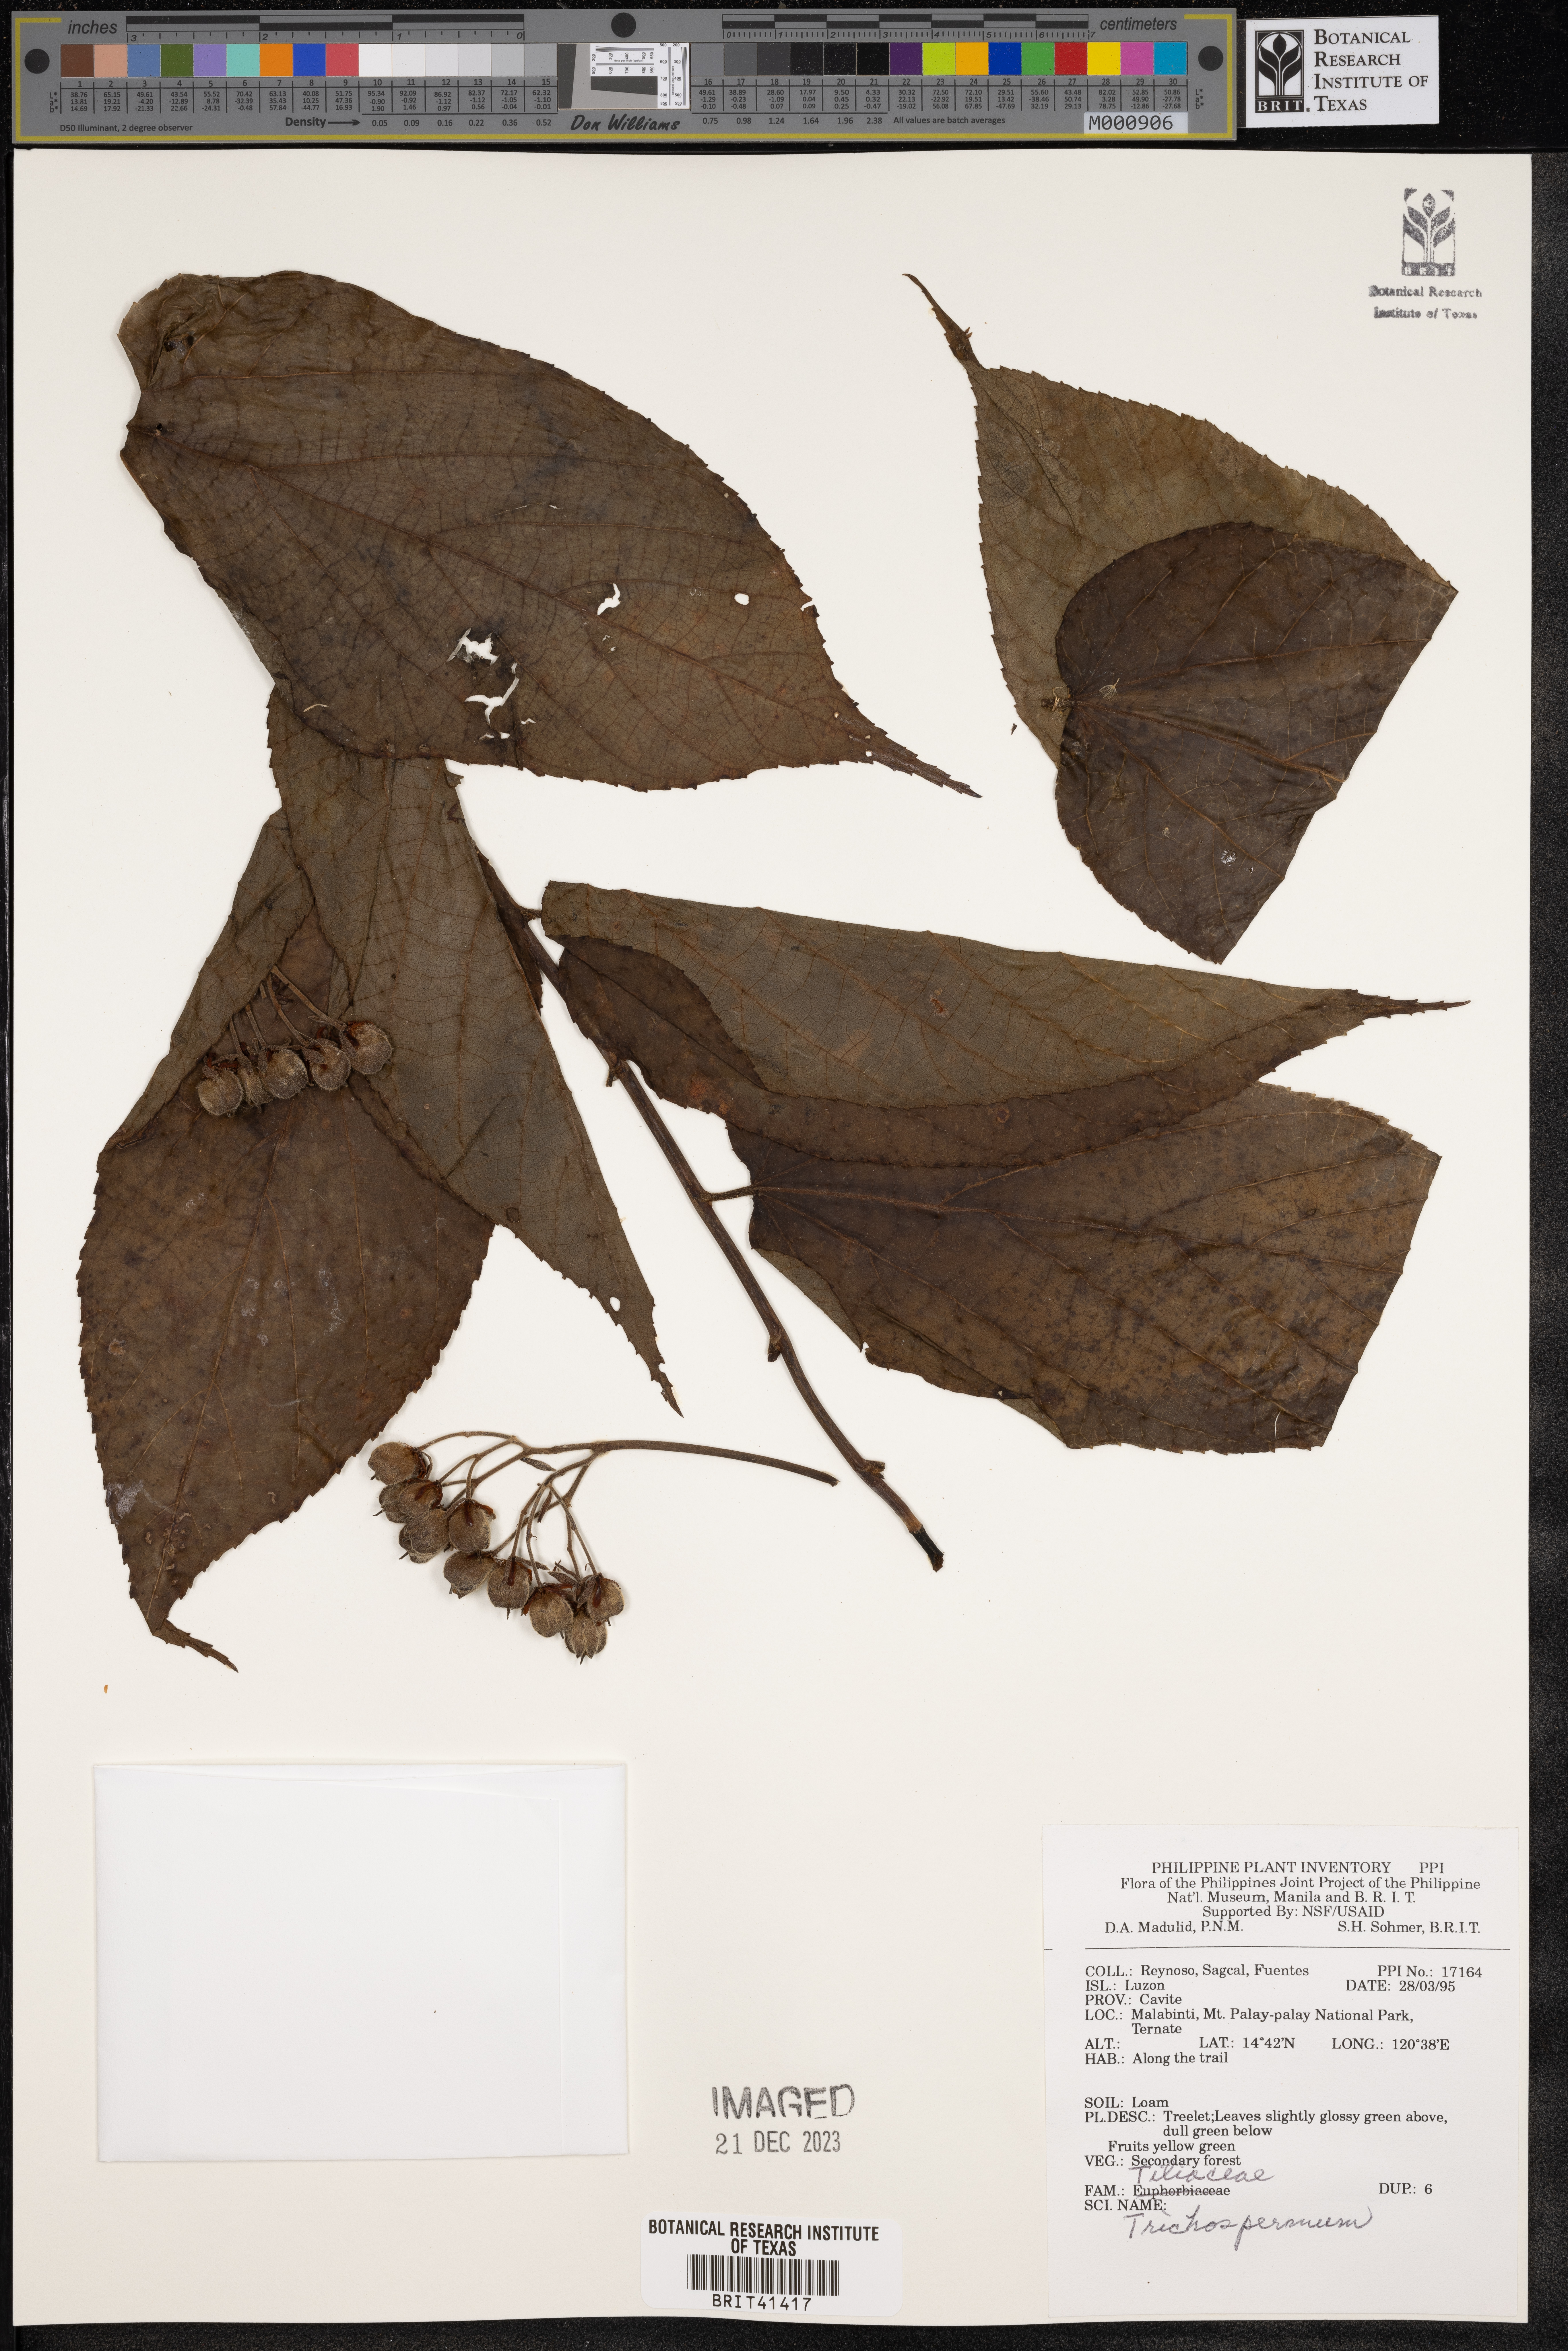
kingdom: Plantae
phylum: Tracheophyta
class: Magnoliopsida
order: Malvales
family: Malvaceae
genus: Trichospermum
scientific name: Trichospermum
